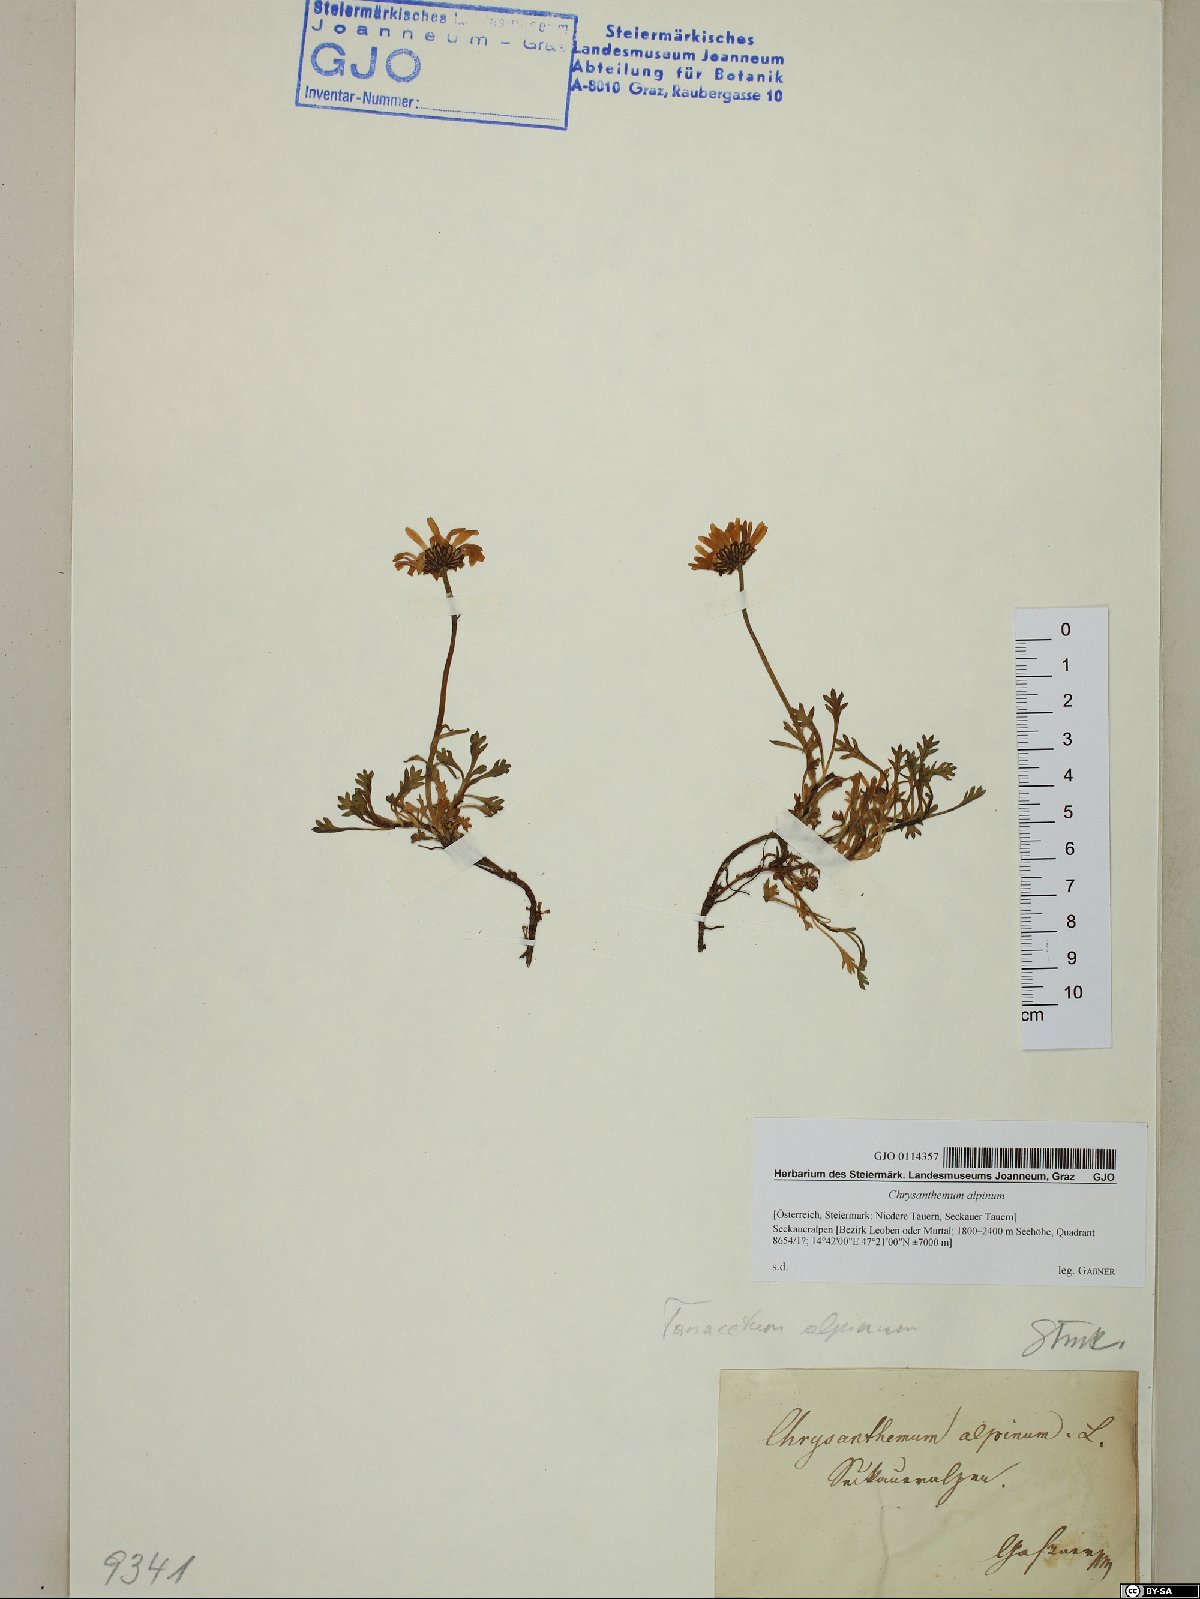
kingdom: Plantae
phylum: Tracheophyta
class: Magnoliopsida
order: Asterales
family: Asteraceae
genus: Leucanthemopsis
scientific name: Leucanthemopsis alpina
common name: Alpine moon daisy
